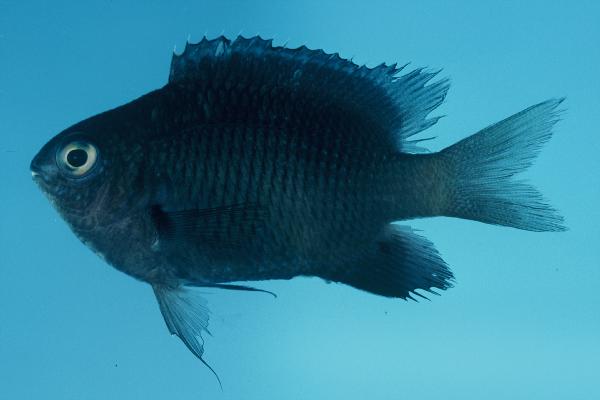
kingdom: Animalia
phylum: Chordata
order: Perciformes
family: Pomacentridae
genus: Stegastes
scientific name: Stegastes fasciolatus
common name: Pacific gregory
